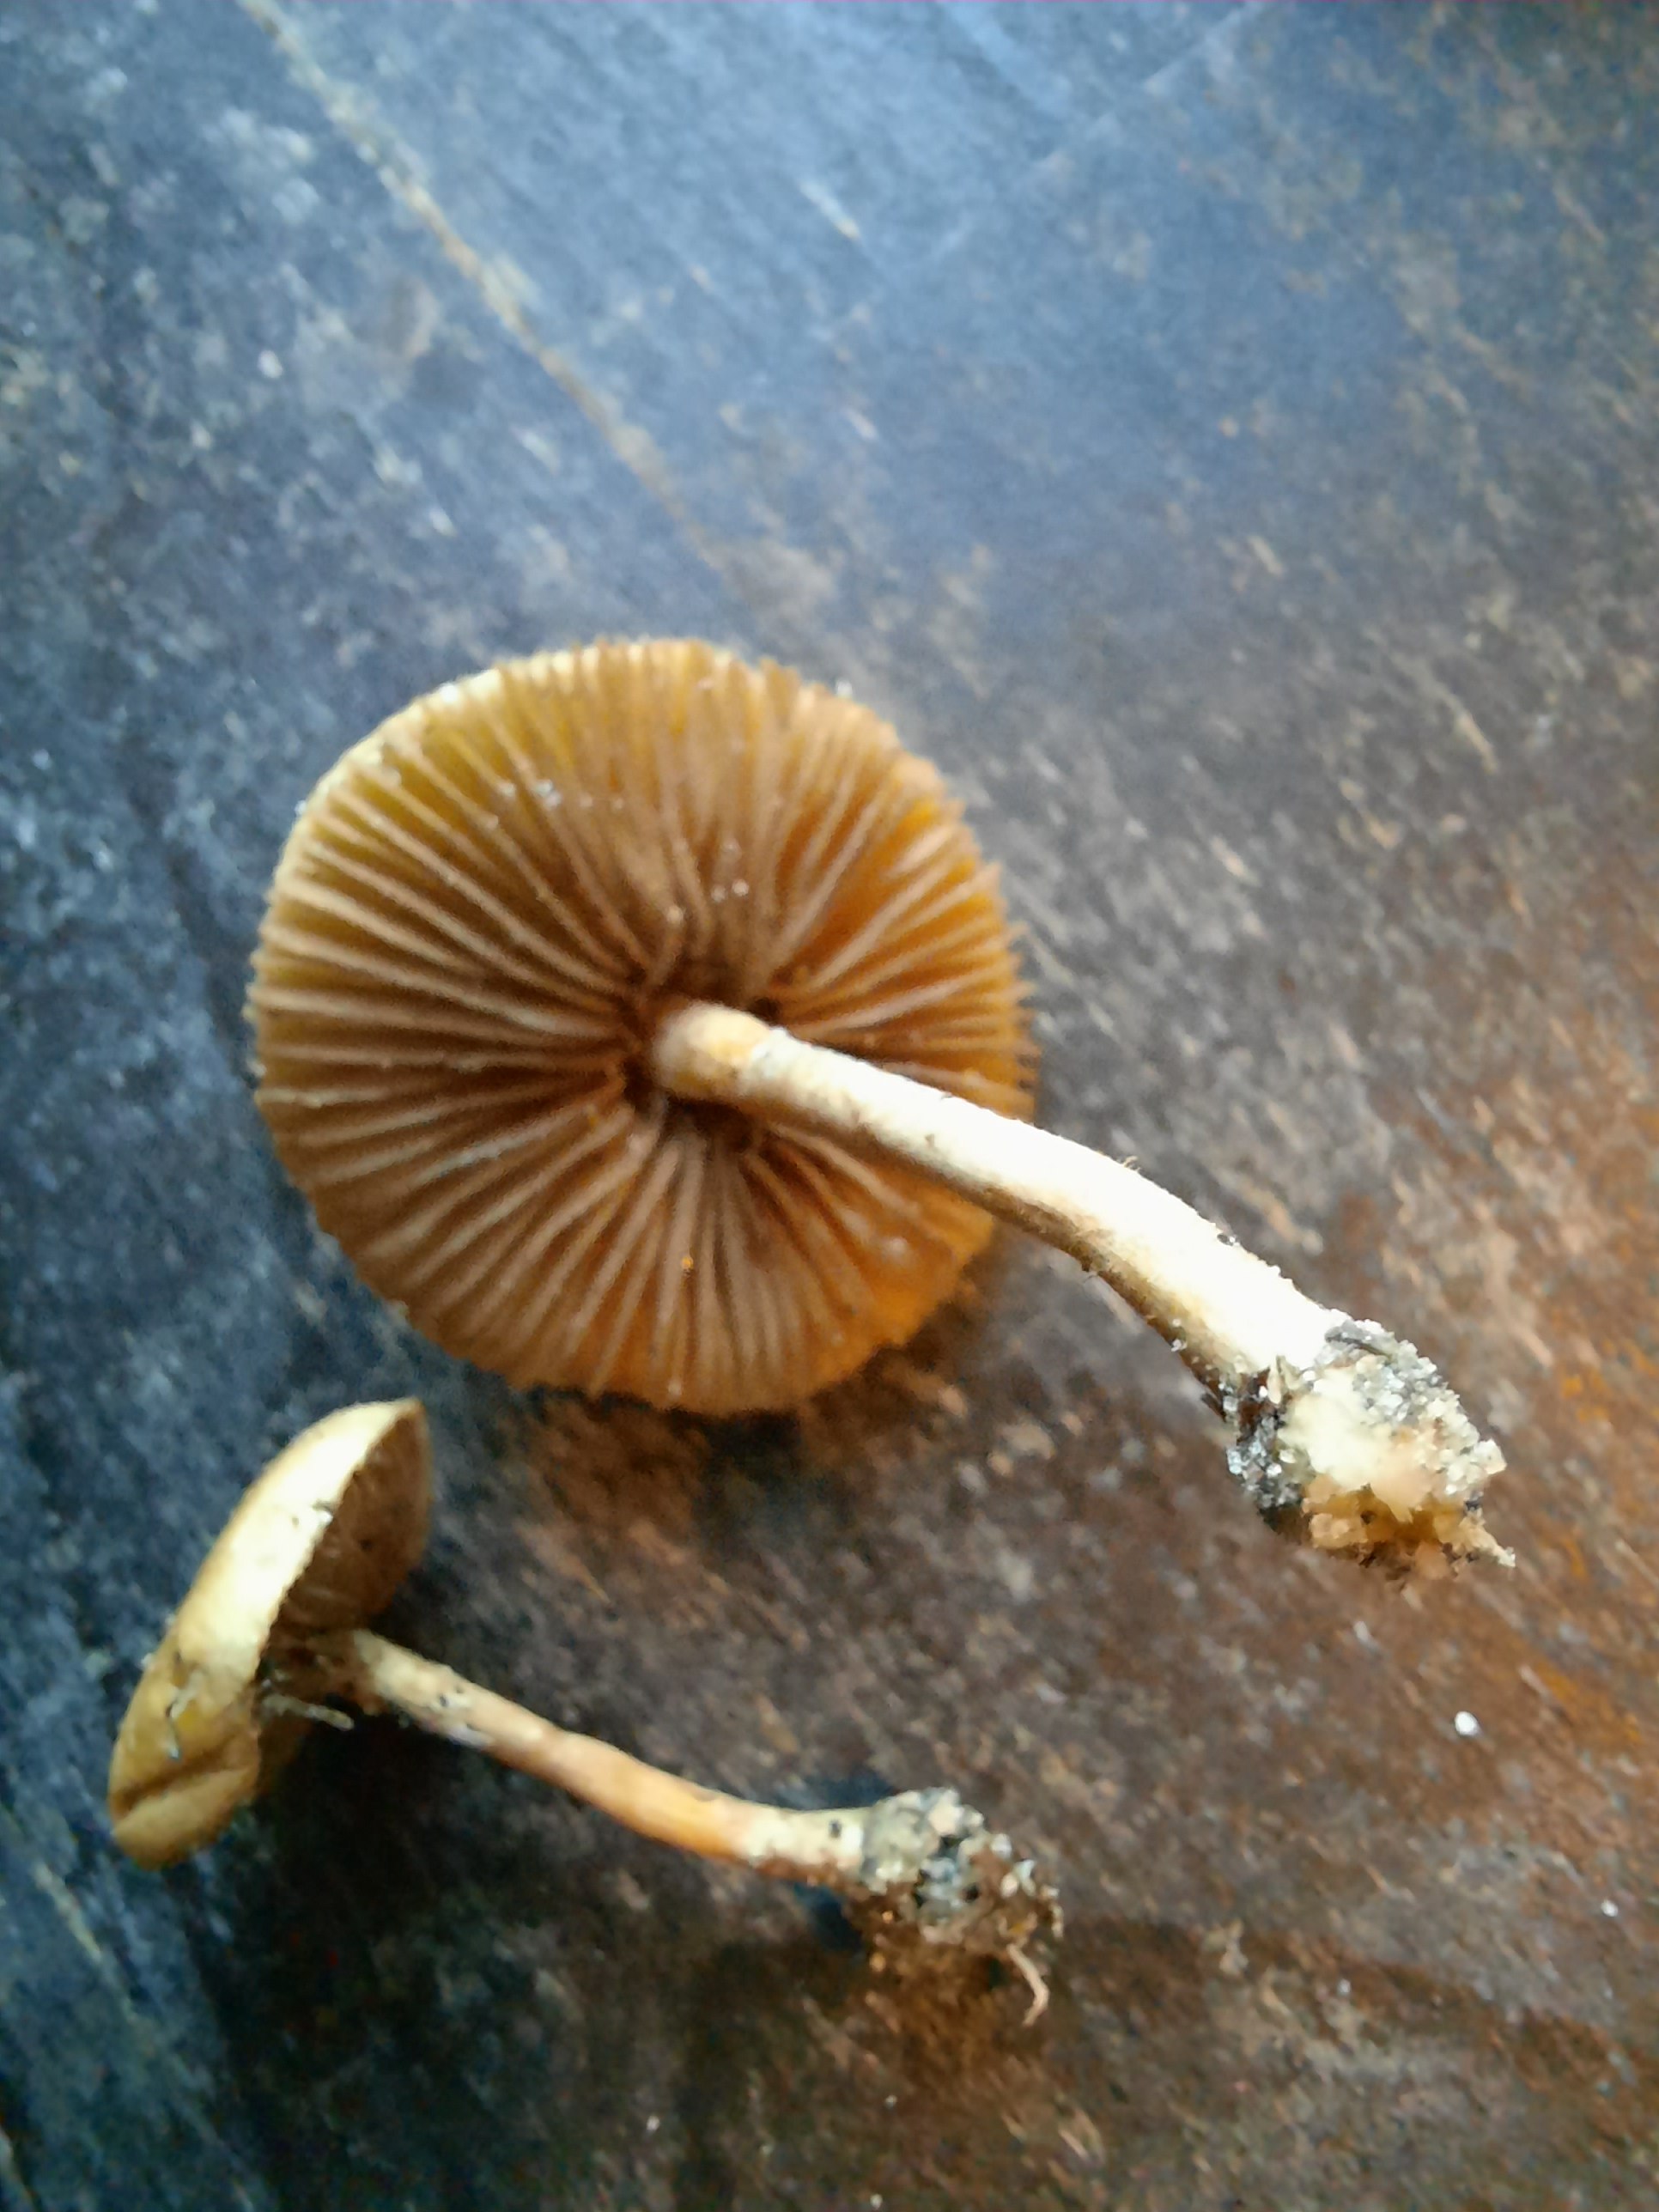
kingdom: Fungi
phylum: Basidiomycota
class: Agaricomycetes
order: Agaricales
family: Strophariaceae
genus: Agrocybe
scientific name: Agrocybe pediades
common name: almindelig agerhat
